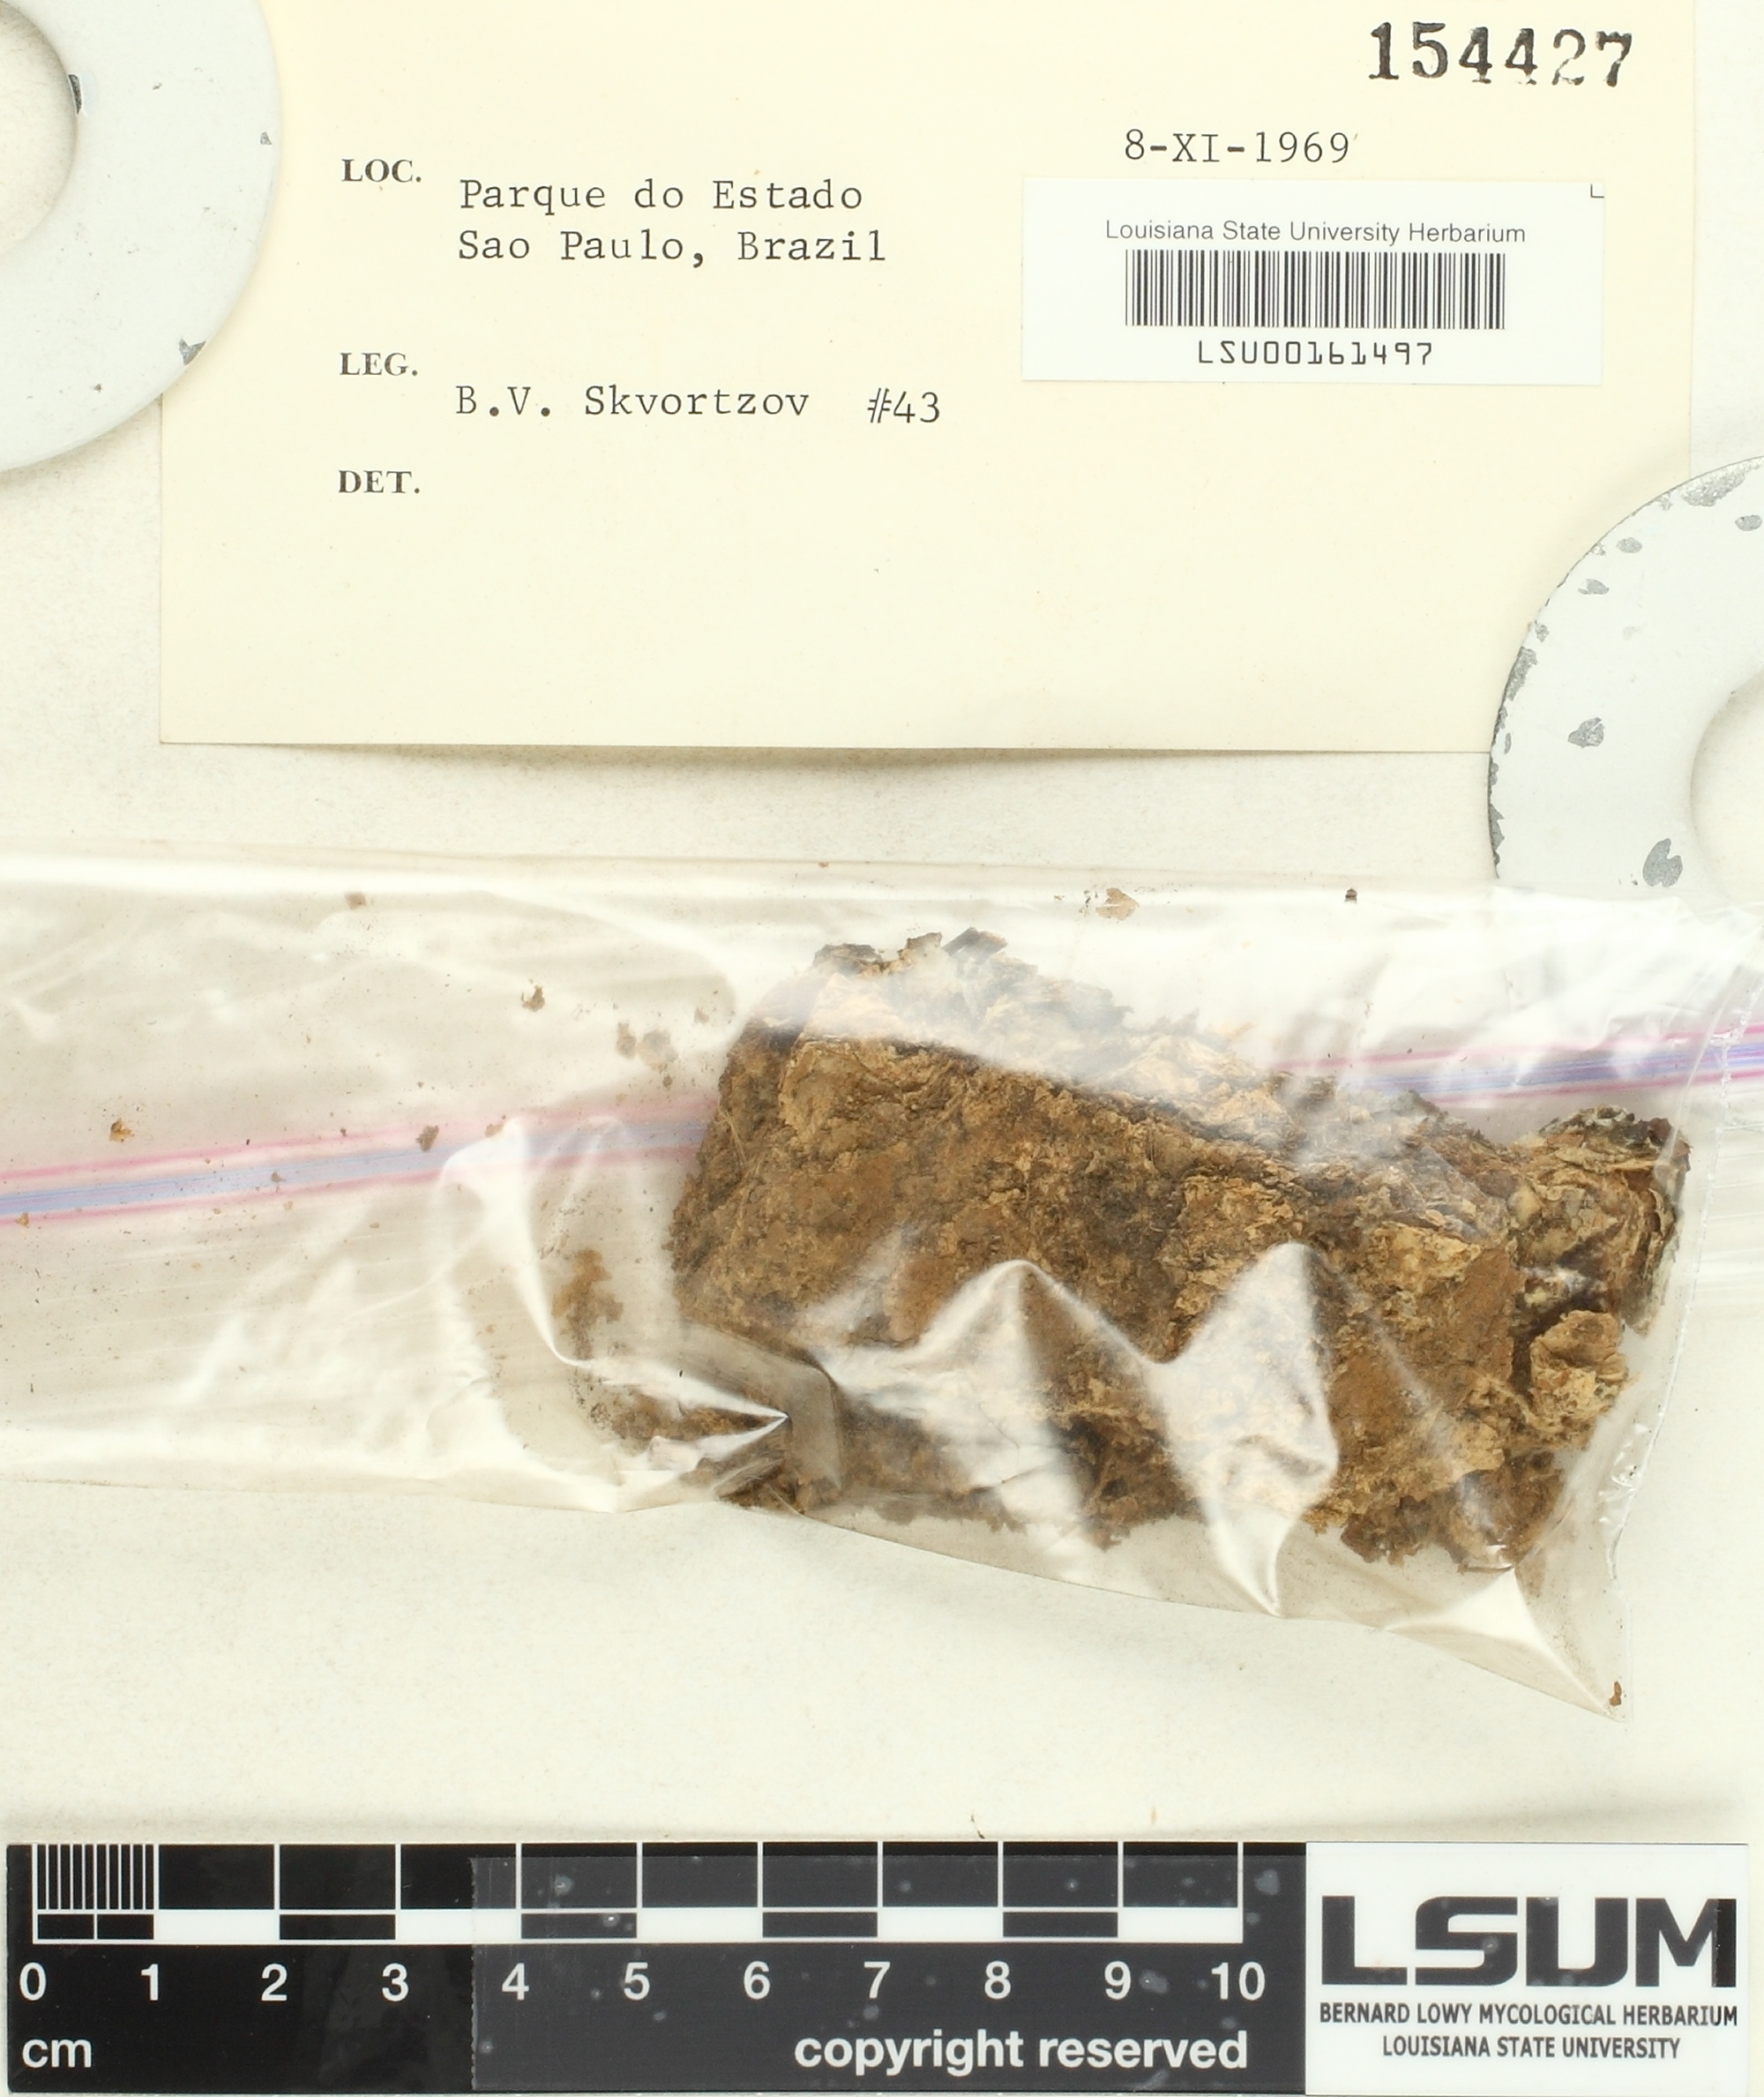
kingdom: Fungi
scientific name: Fungi
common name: Fungi
